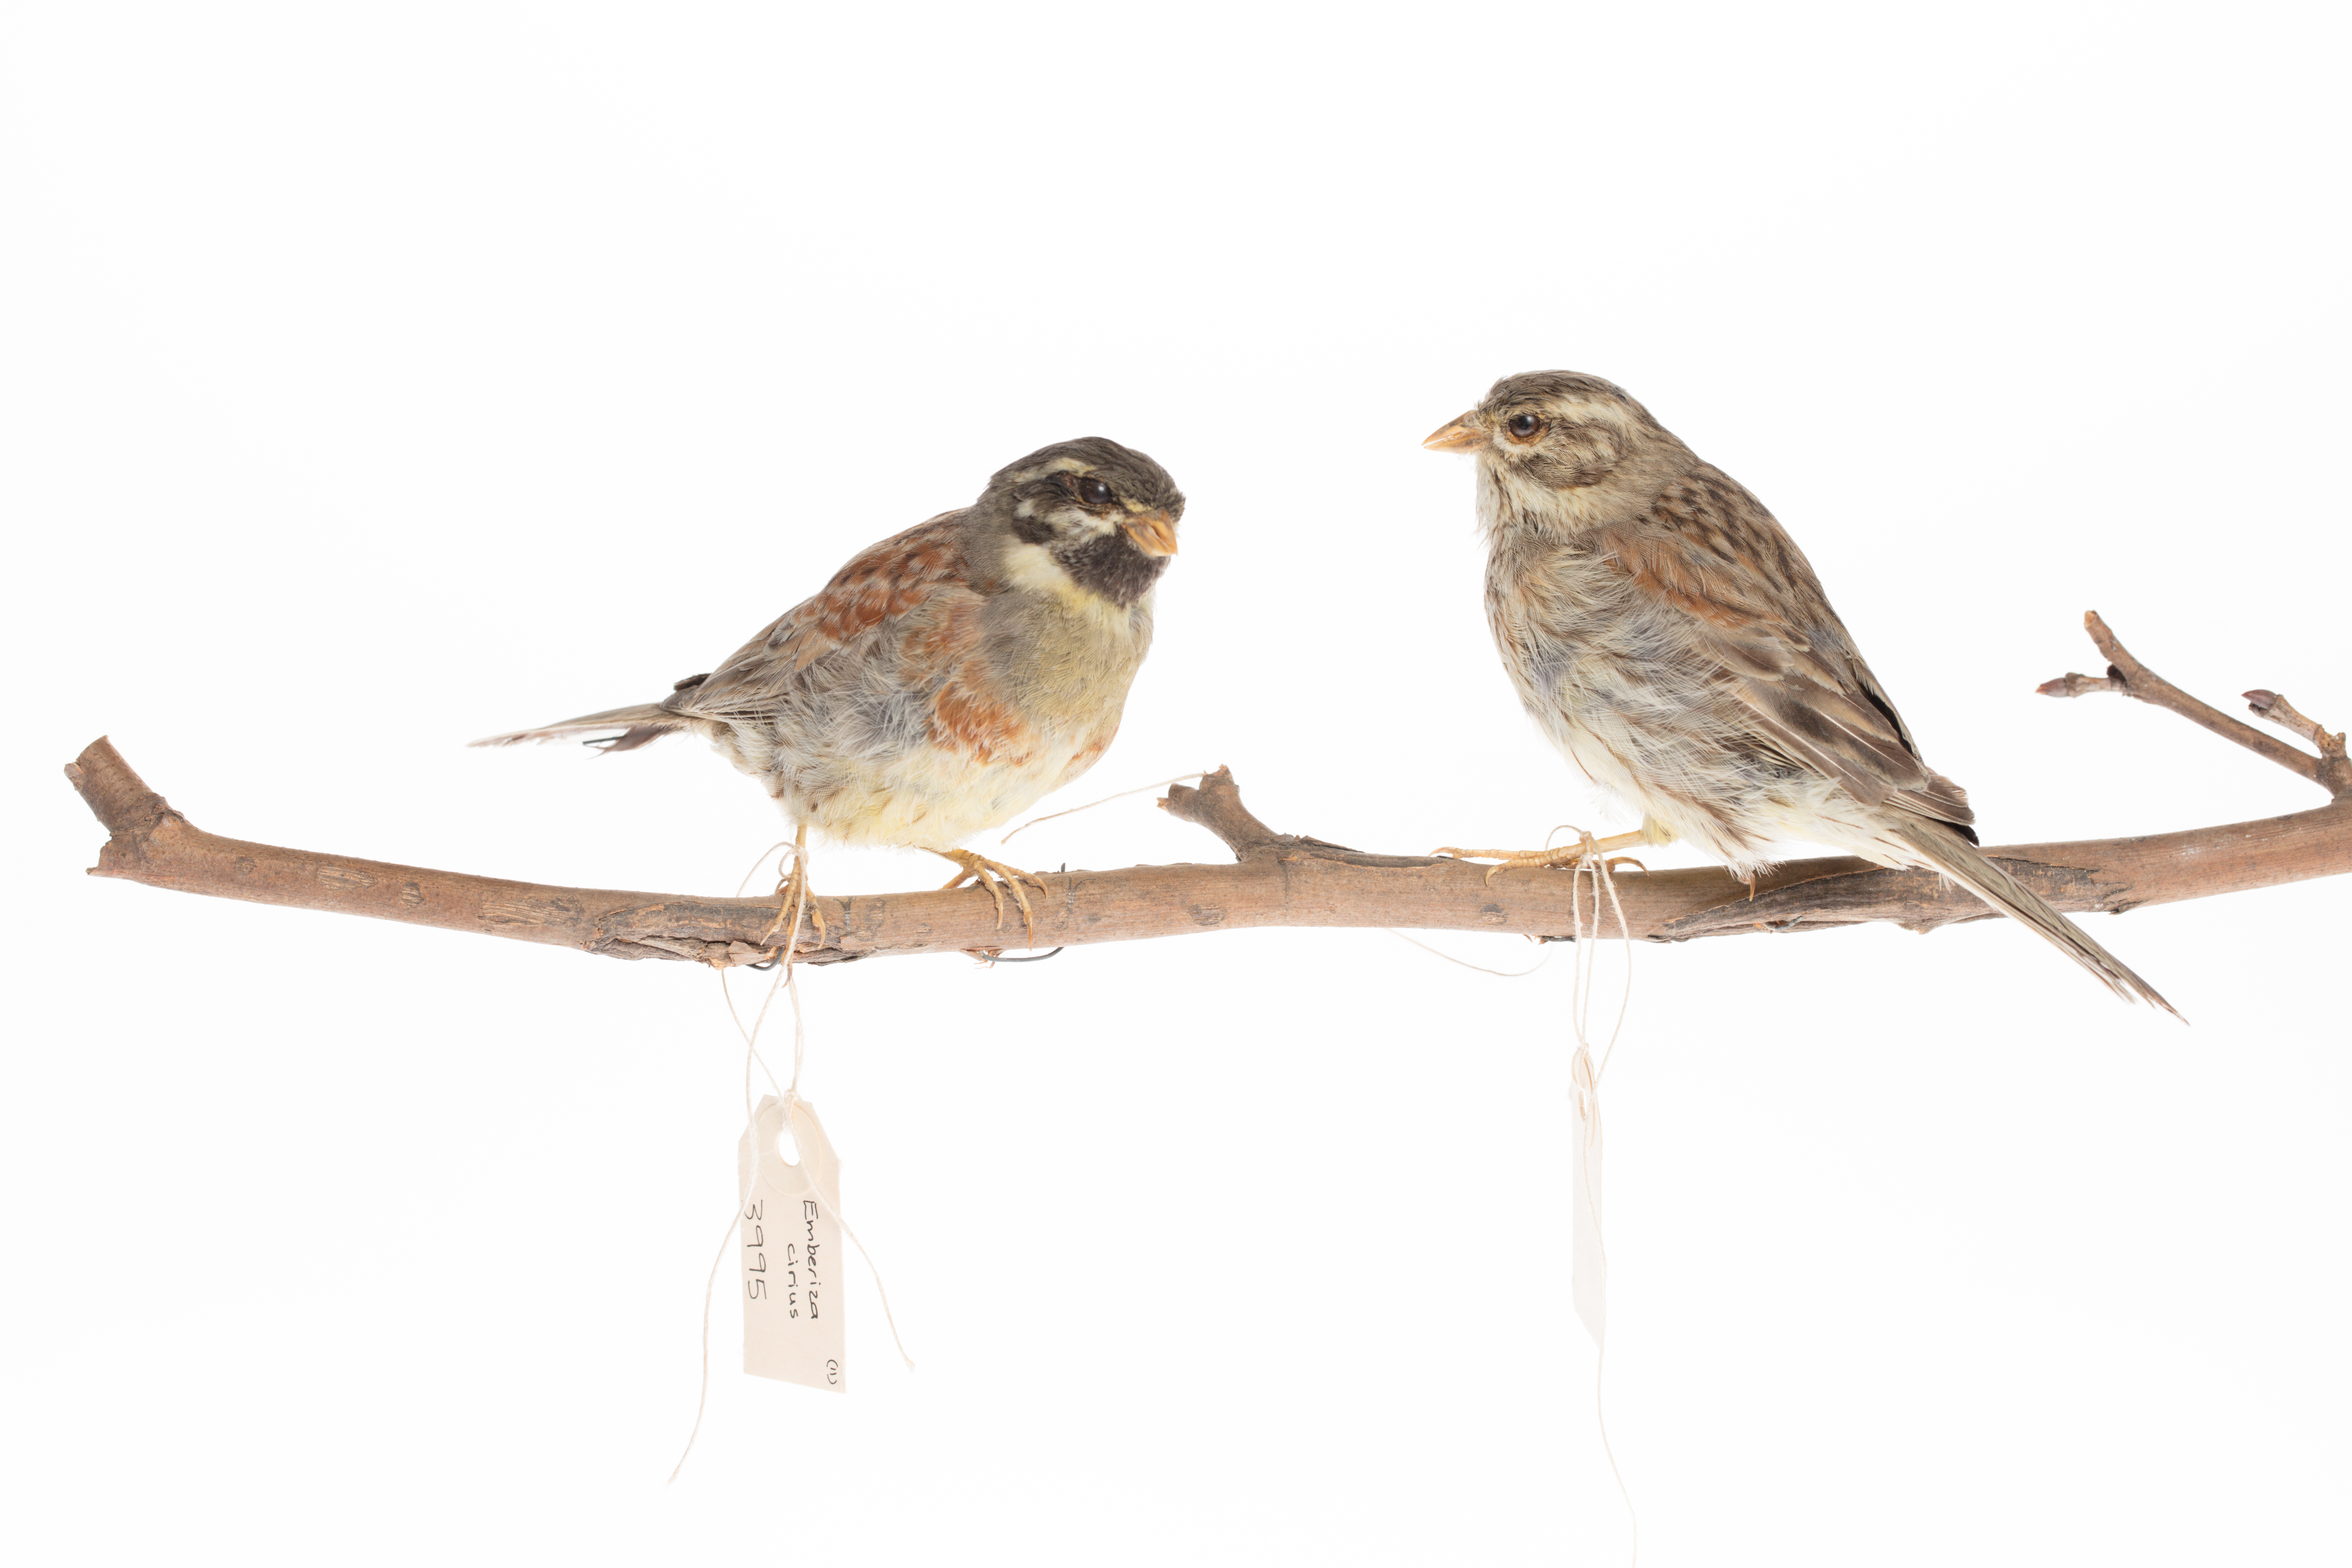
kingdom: Animalia
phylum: Chordata
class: Aves
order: Passeriformes
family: Emberizidae
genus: Emberiza
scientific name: Emberiza cirlus
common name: Cirl bunting
